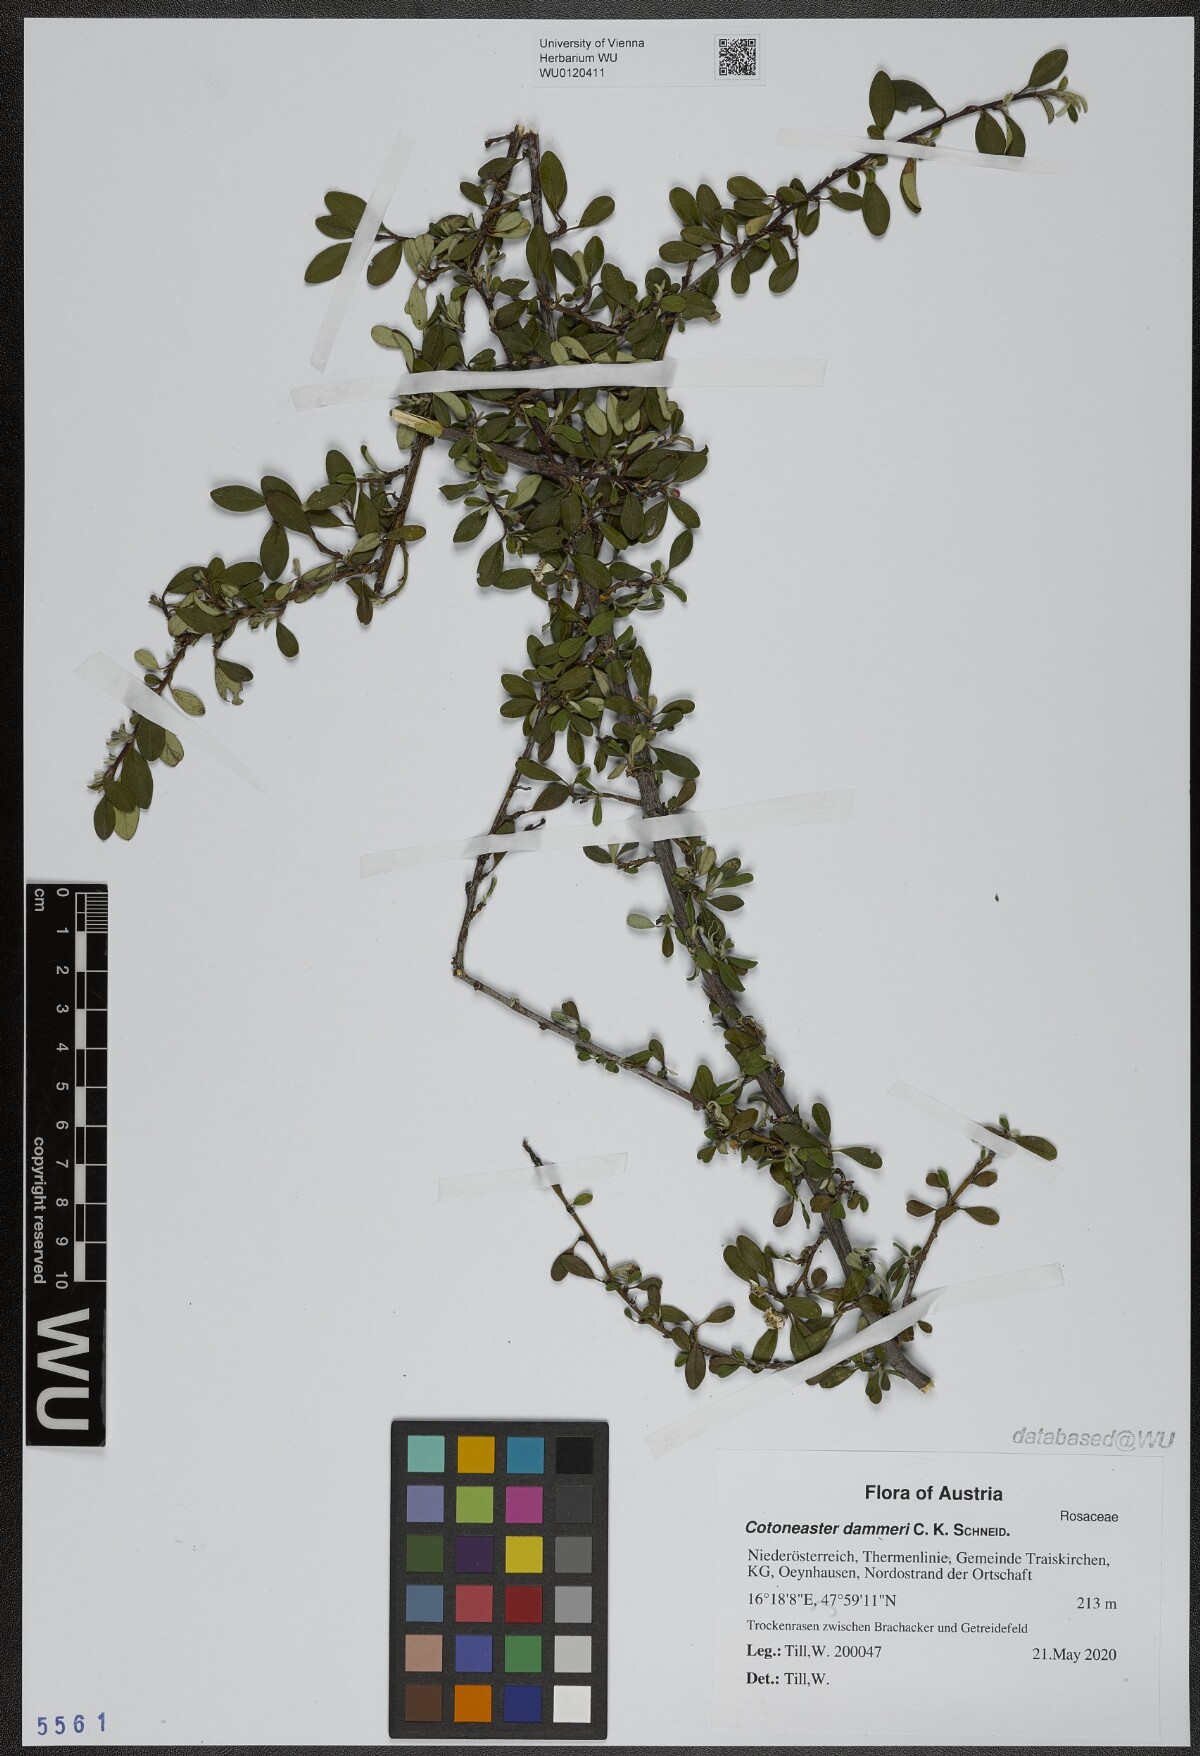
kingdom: Plantae
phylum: Tracheophyta
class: Magnoliopsida
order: Rosales
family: Rosaceae
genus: Cotoneaster
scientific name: Cotoneaster dammeri
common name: Bearberry cotoneaster
